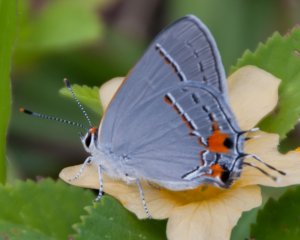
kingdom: Animalia
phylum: Arthropoda
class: Insecta
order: Lepidoptera
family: Lycaenidae
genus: Strymon
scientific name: Strymon melinus
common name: Gray Hairstreak
